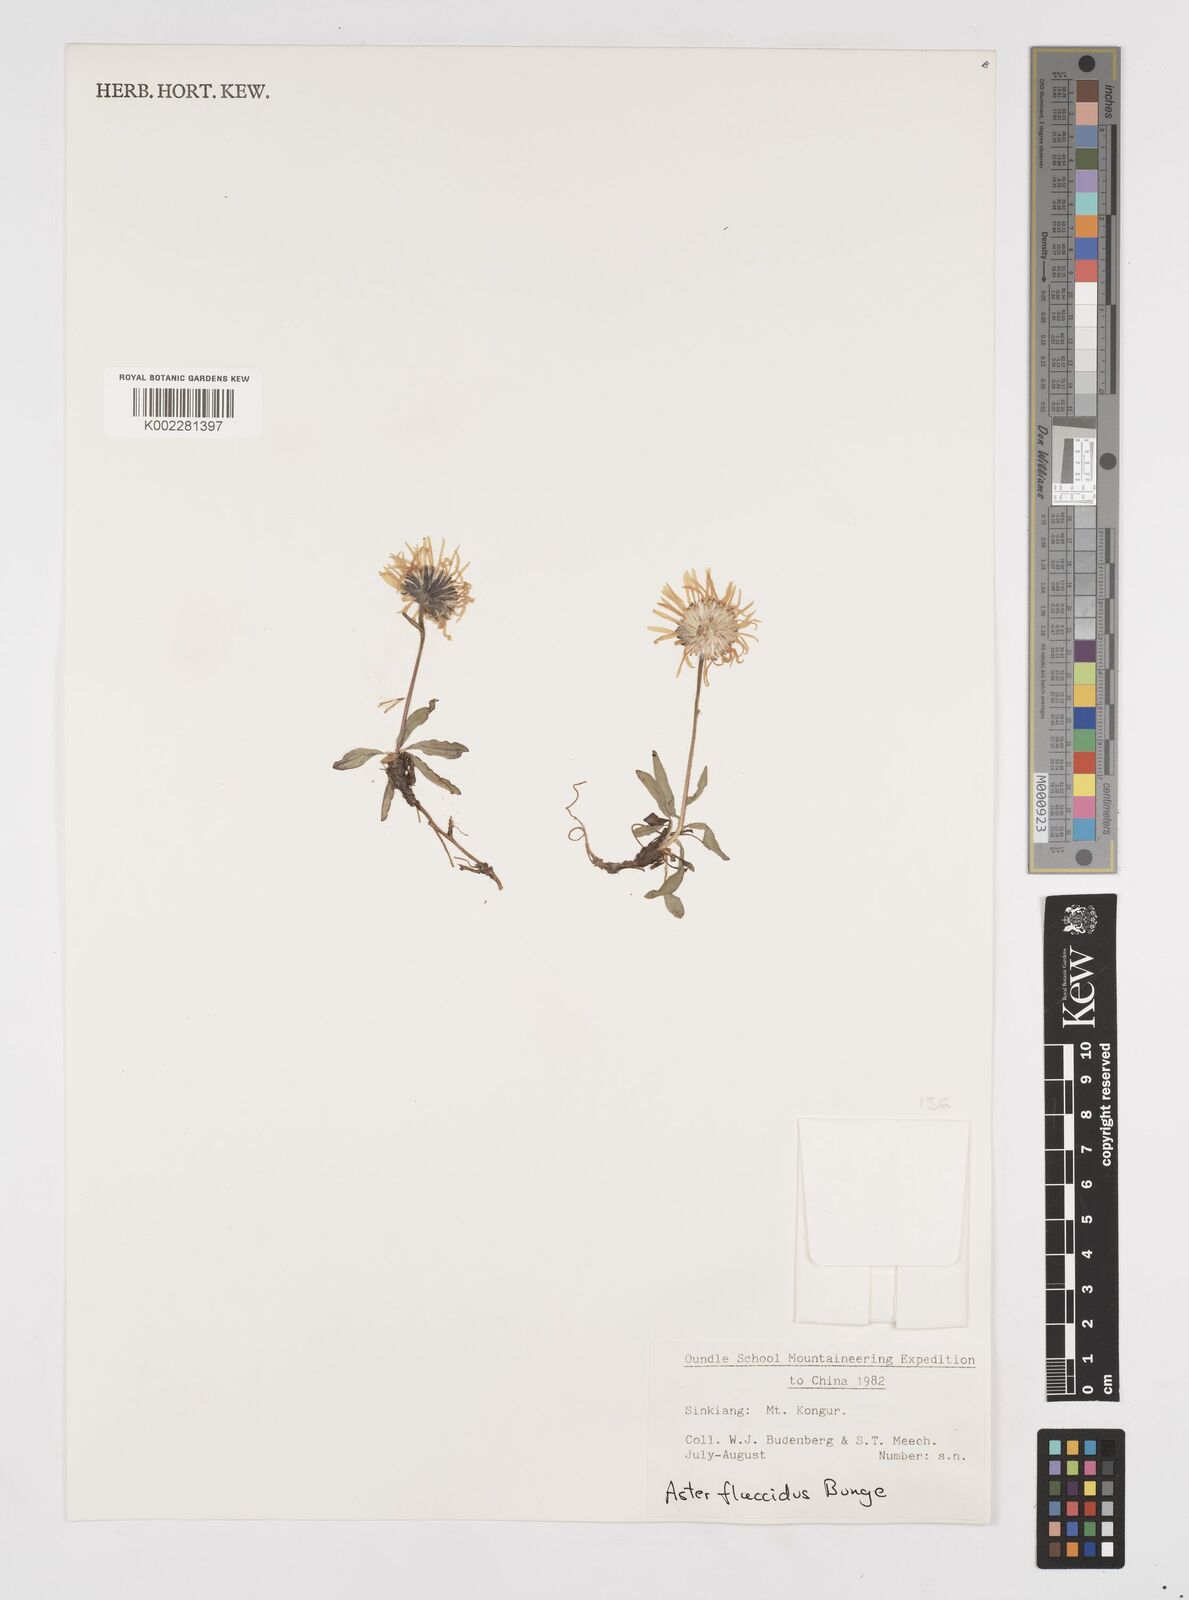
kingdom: Plantae
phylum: Tracheophyta
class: Magnoliopsida
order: Asterales
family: Asteraceae
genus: Tibetiodes
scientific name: Tibetiodes flaccida
